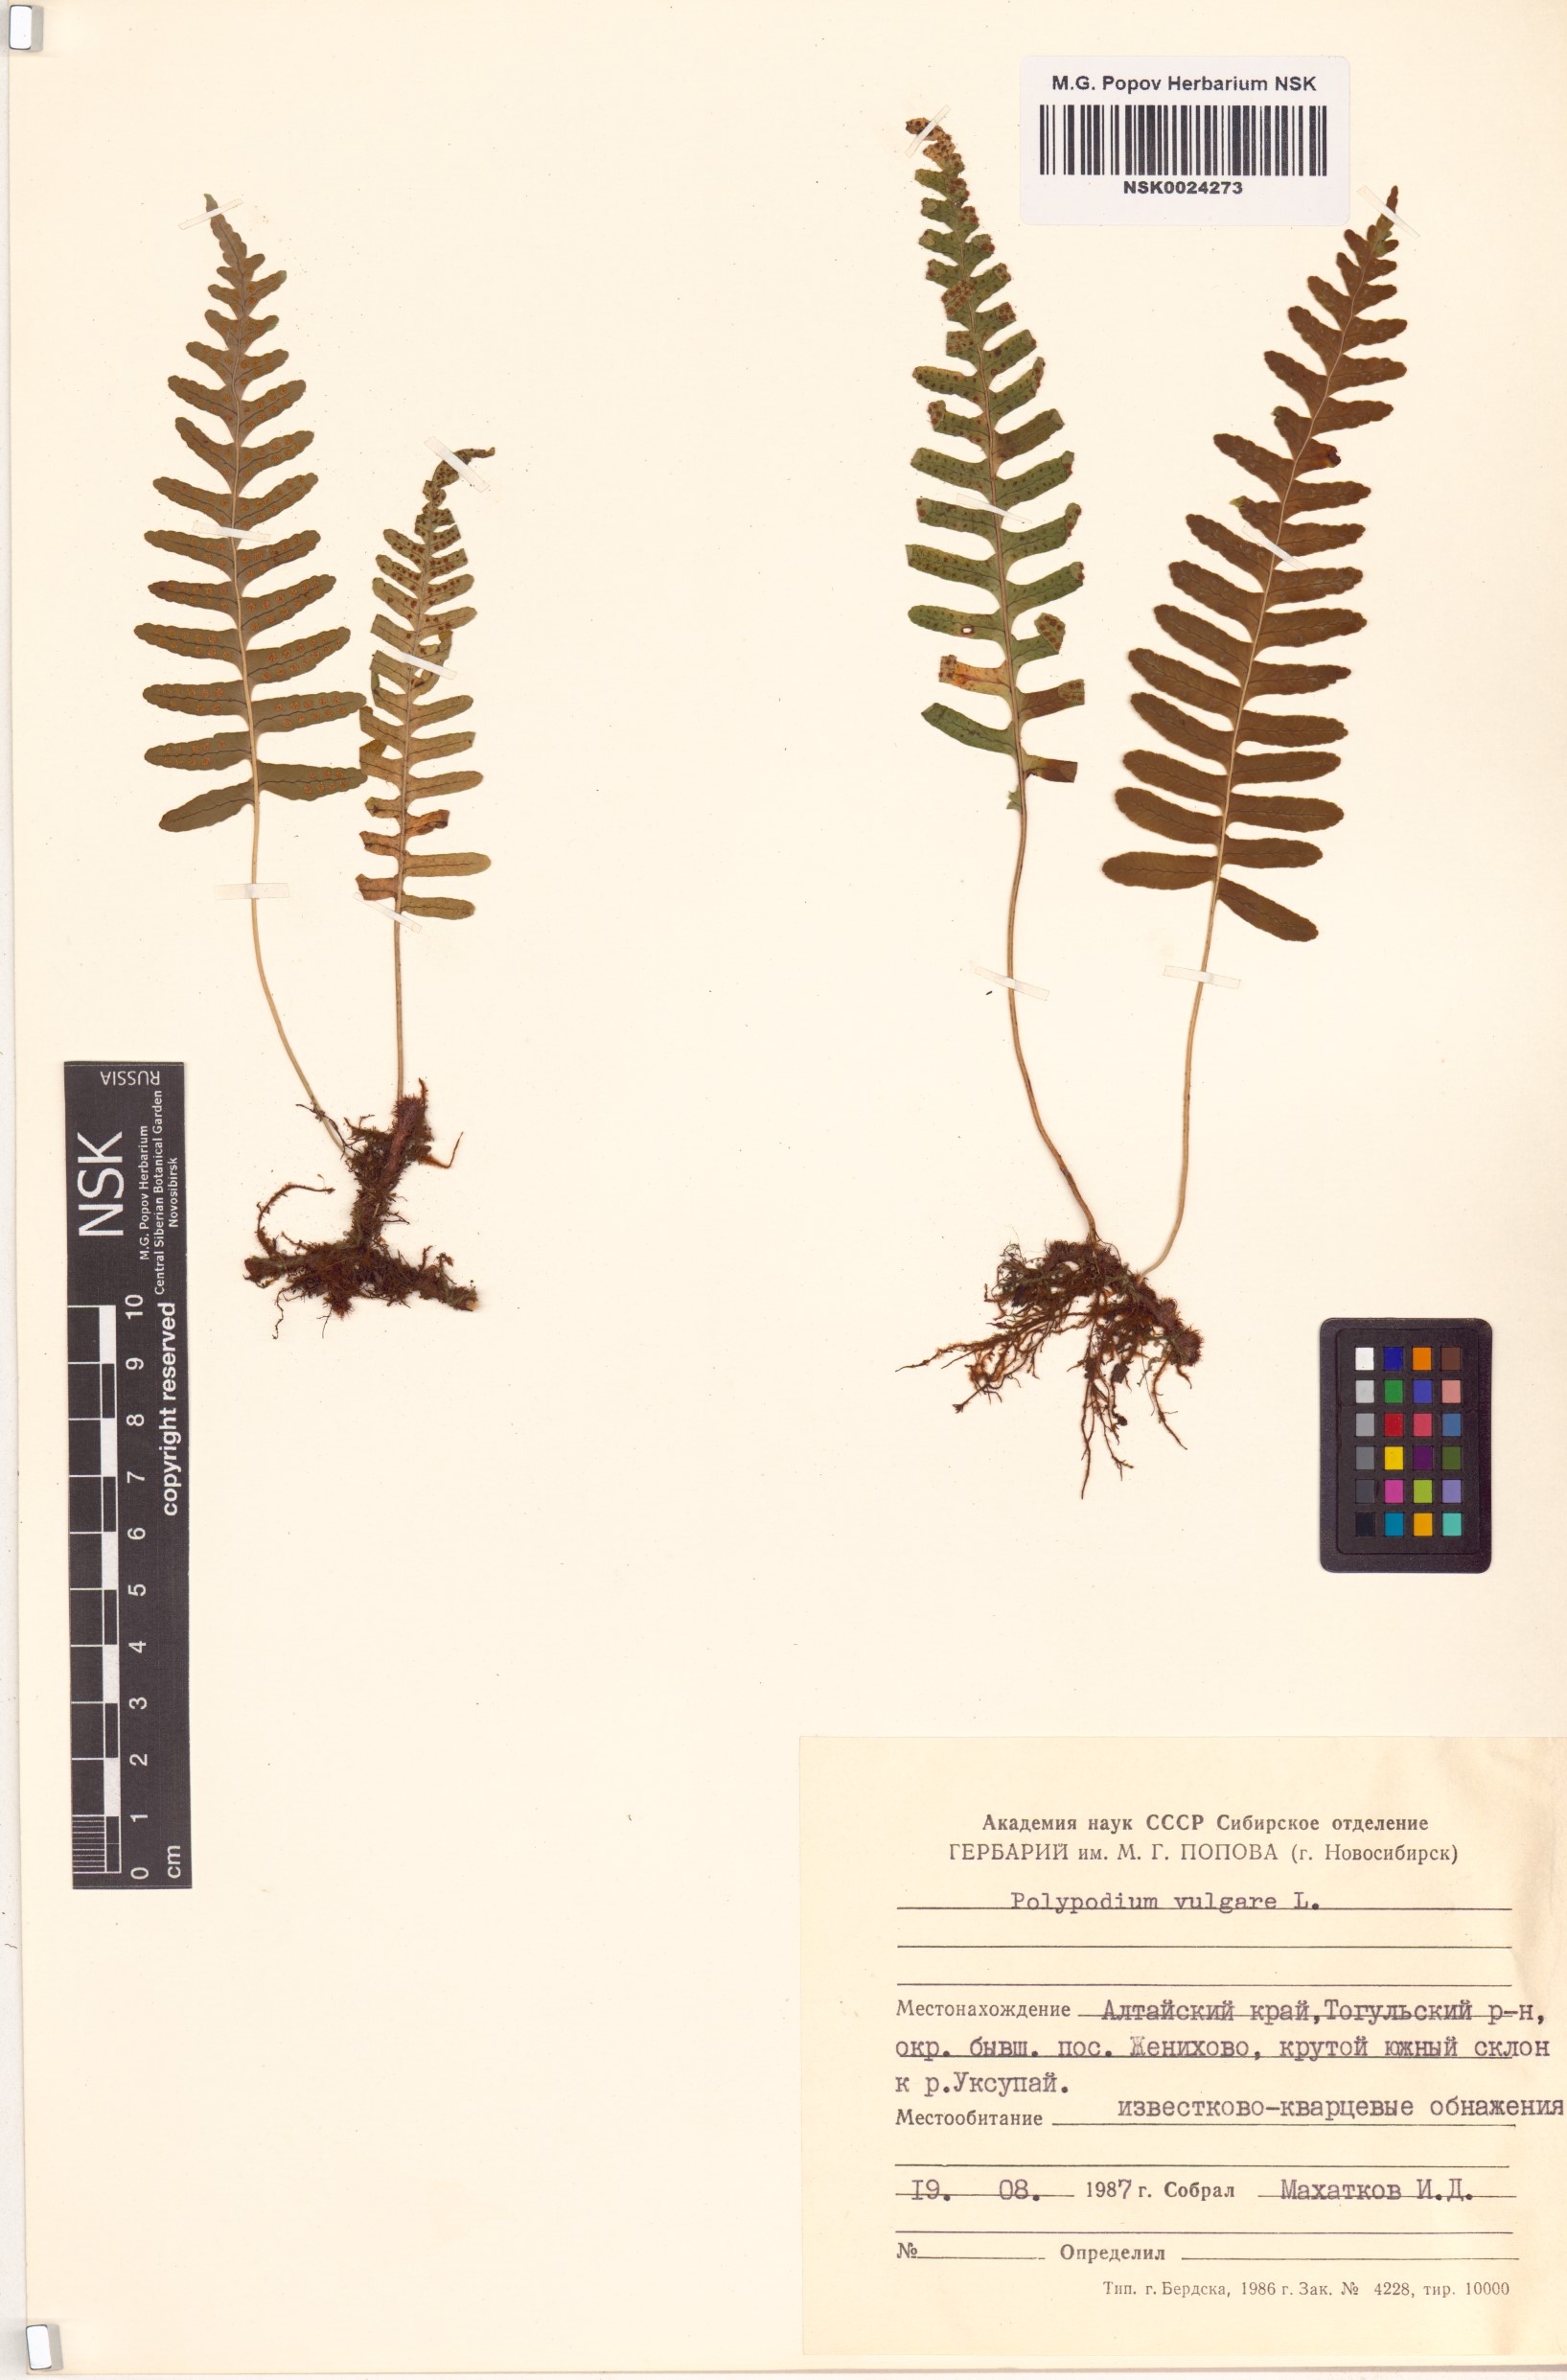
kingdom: Plantae
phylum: Tracheophyta
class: Polypodiopsida
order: Polypodiales
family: Polypodiaceae
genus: Polypodium
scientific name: Polypodium vulgare
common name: Common polypody
